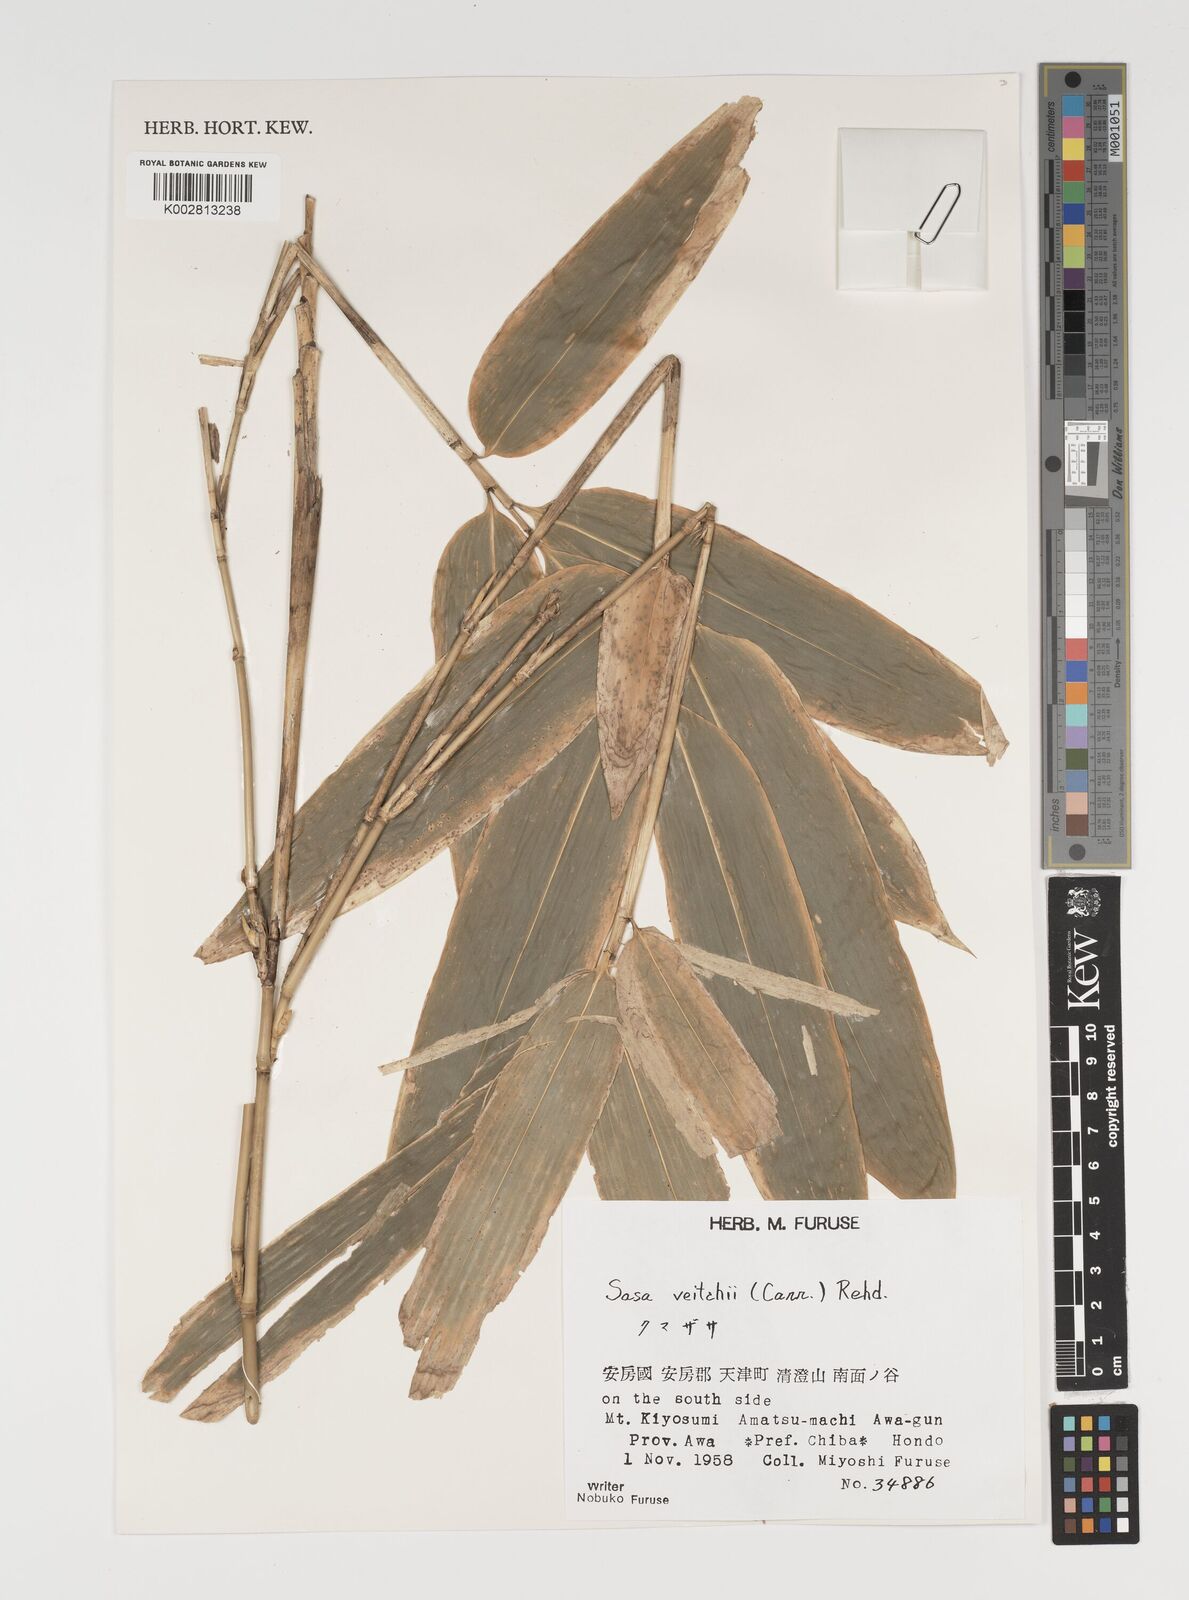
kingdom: Plantae
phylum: Tracheophyta
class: Liliopsida
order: Poales
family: Poaceae
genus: Sasa
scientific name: Sasa veitchii
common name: Veitch's bamboo
